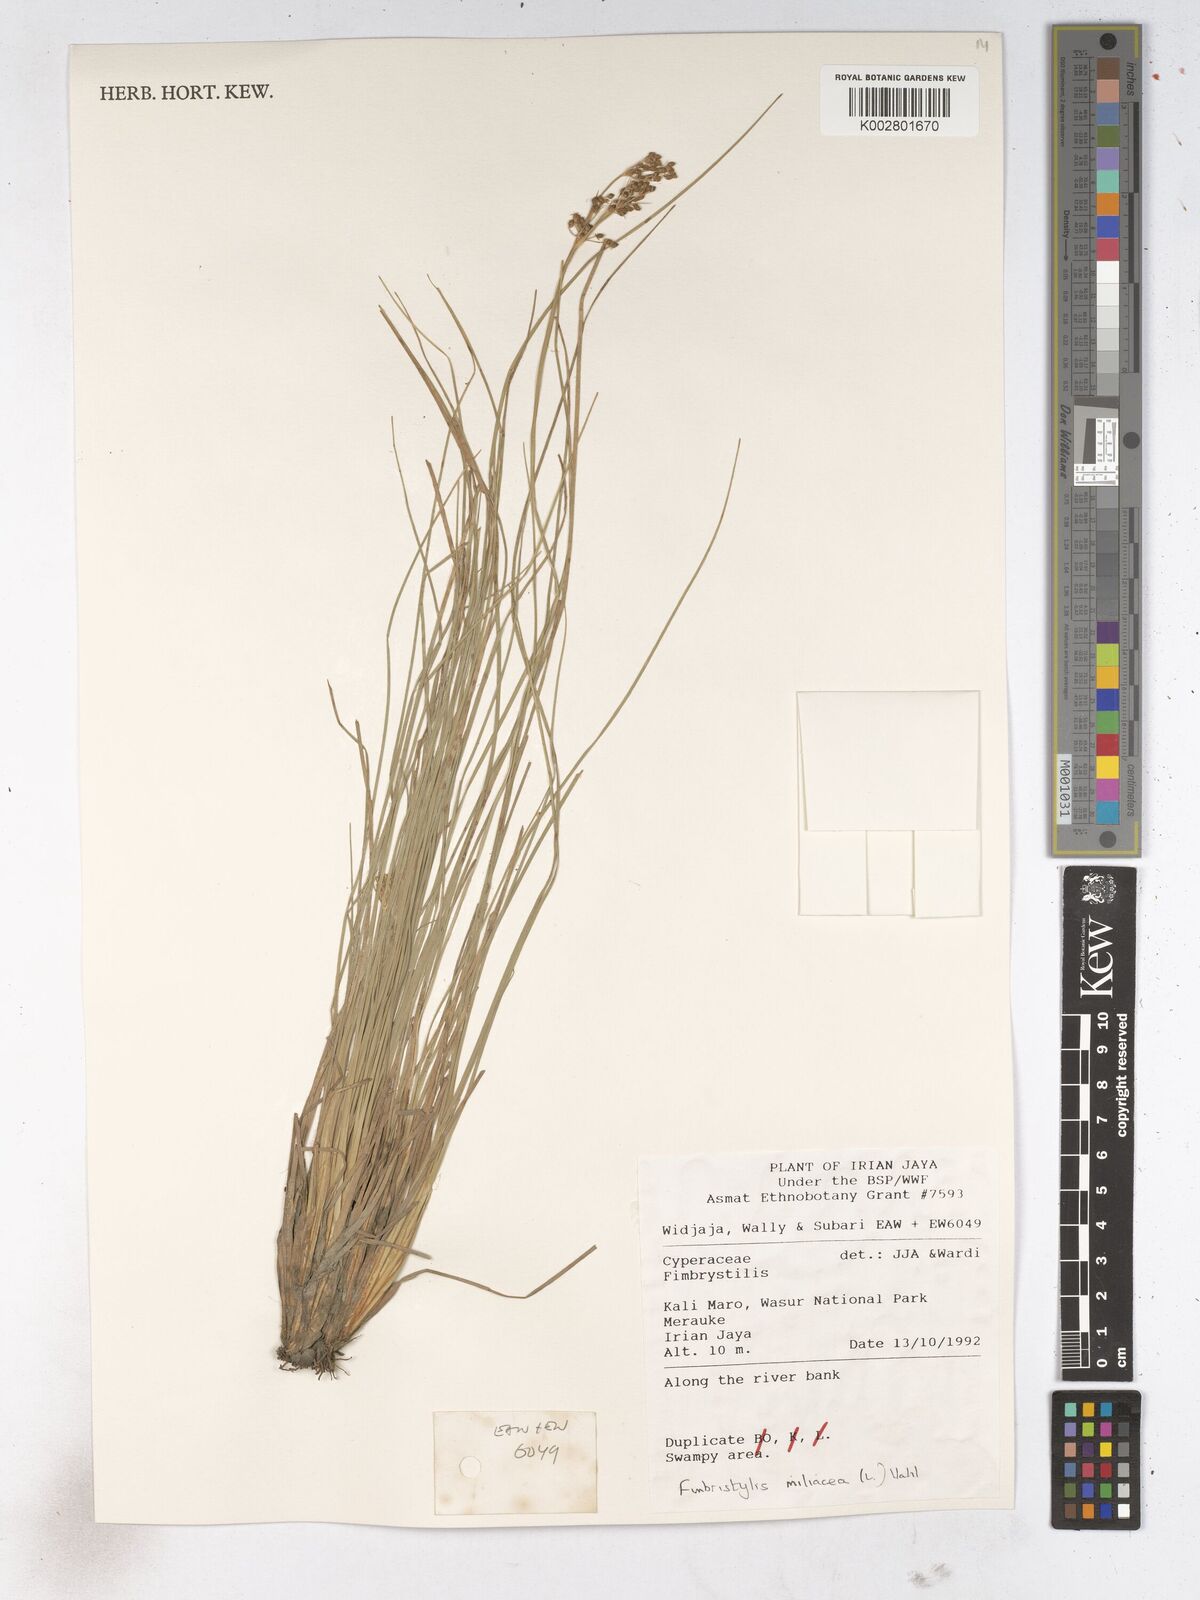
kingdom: Plantae
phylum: Tracheophyta
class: Liliopsida
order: Poales
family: Cyperaceae
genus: Fimbristylis
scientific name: Fimbristylis quinquangularis
